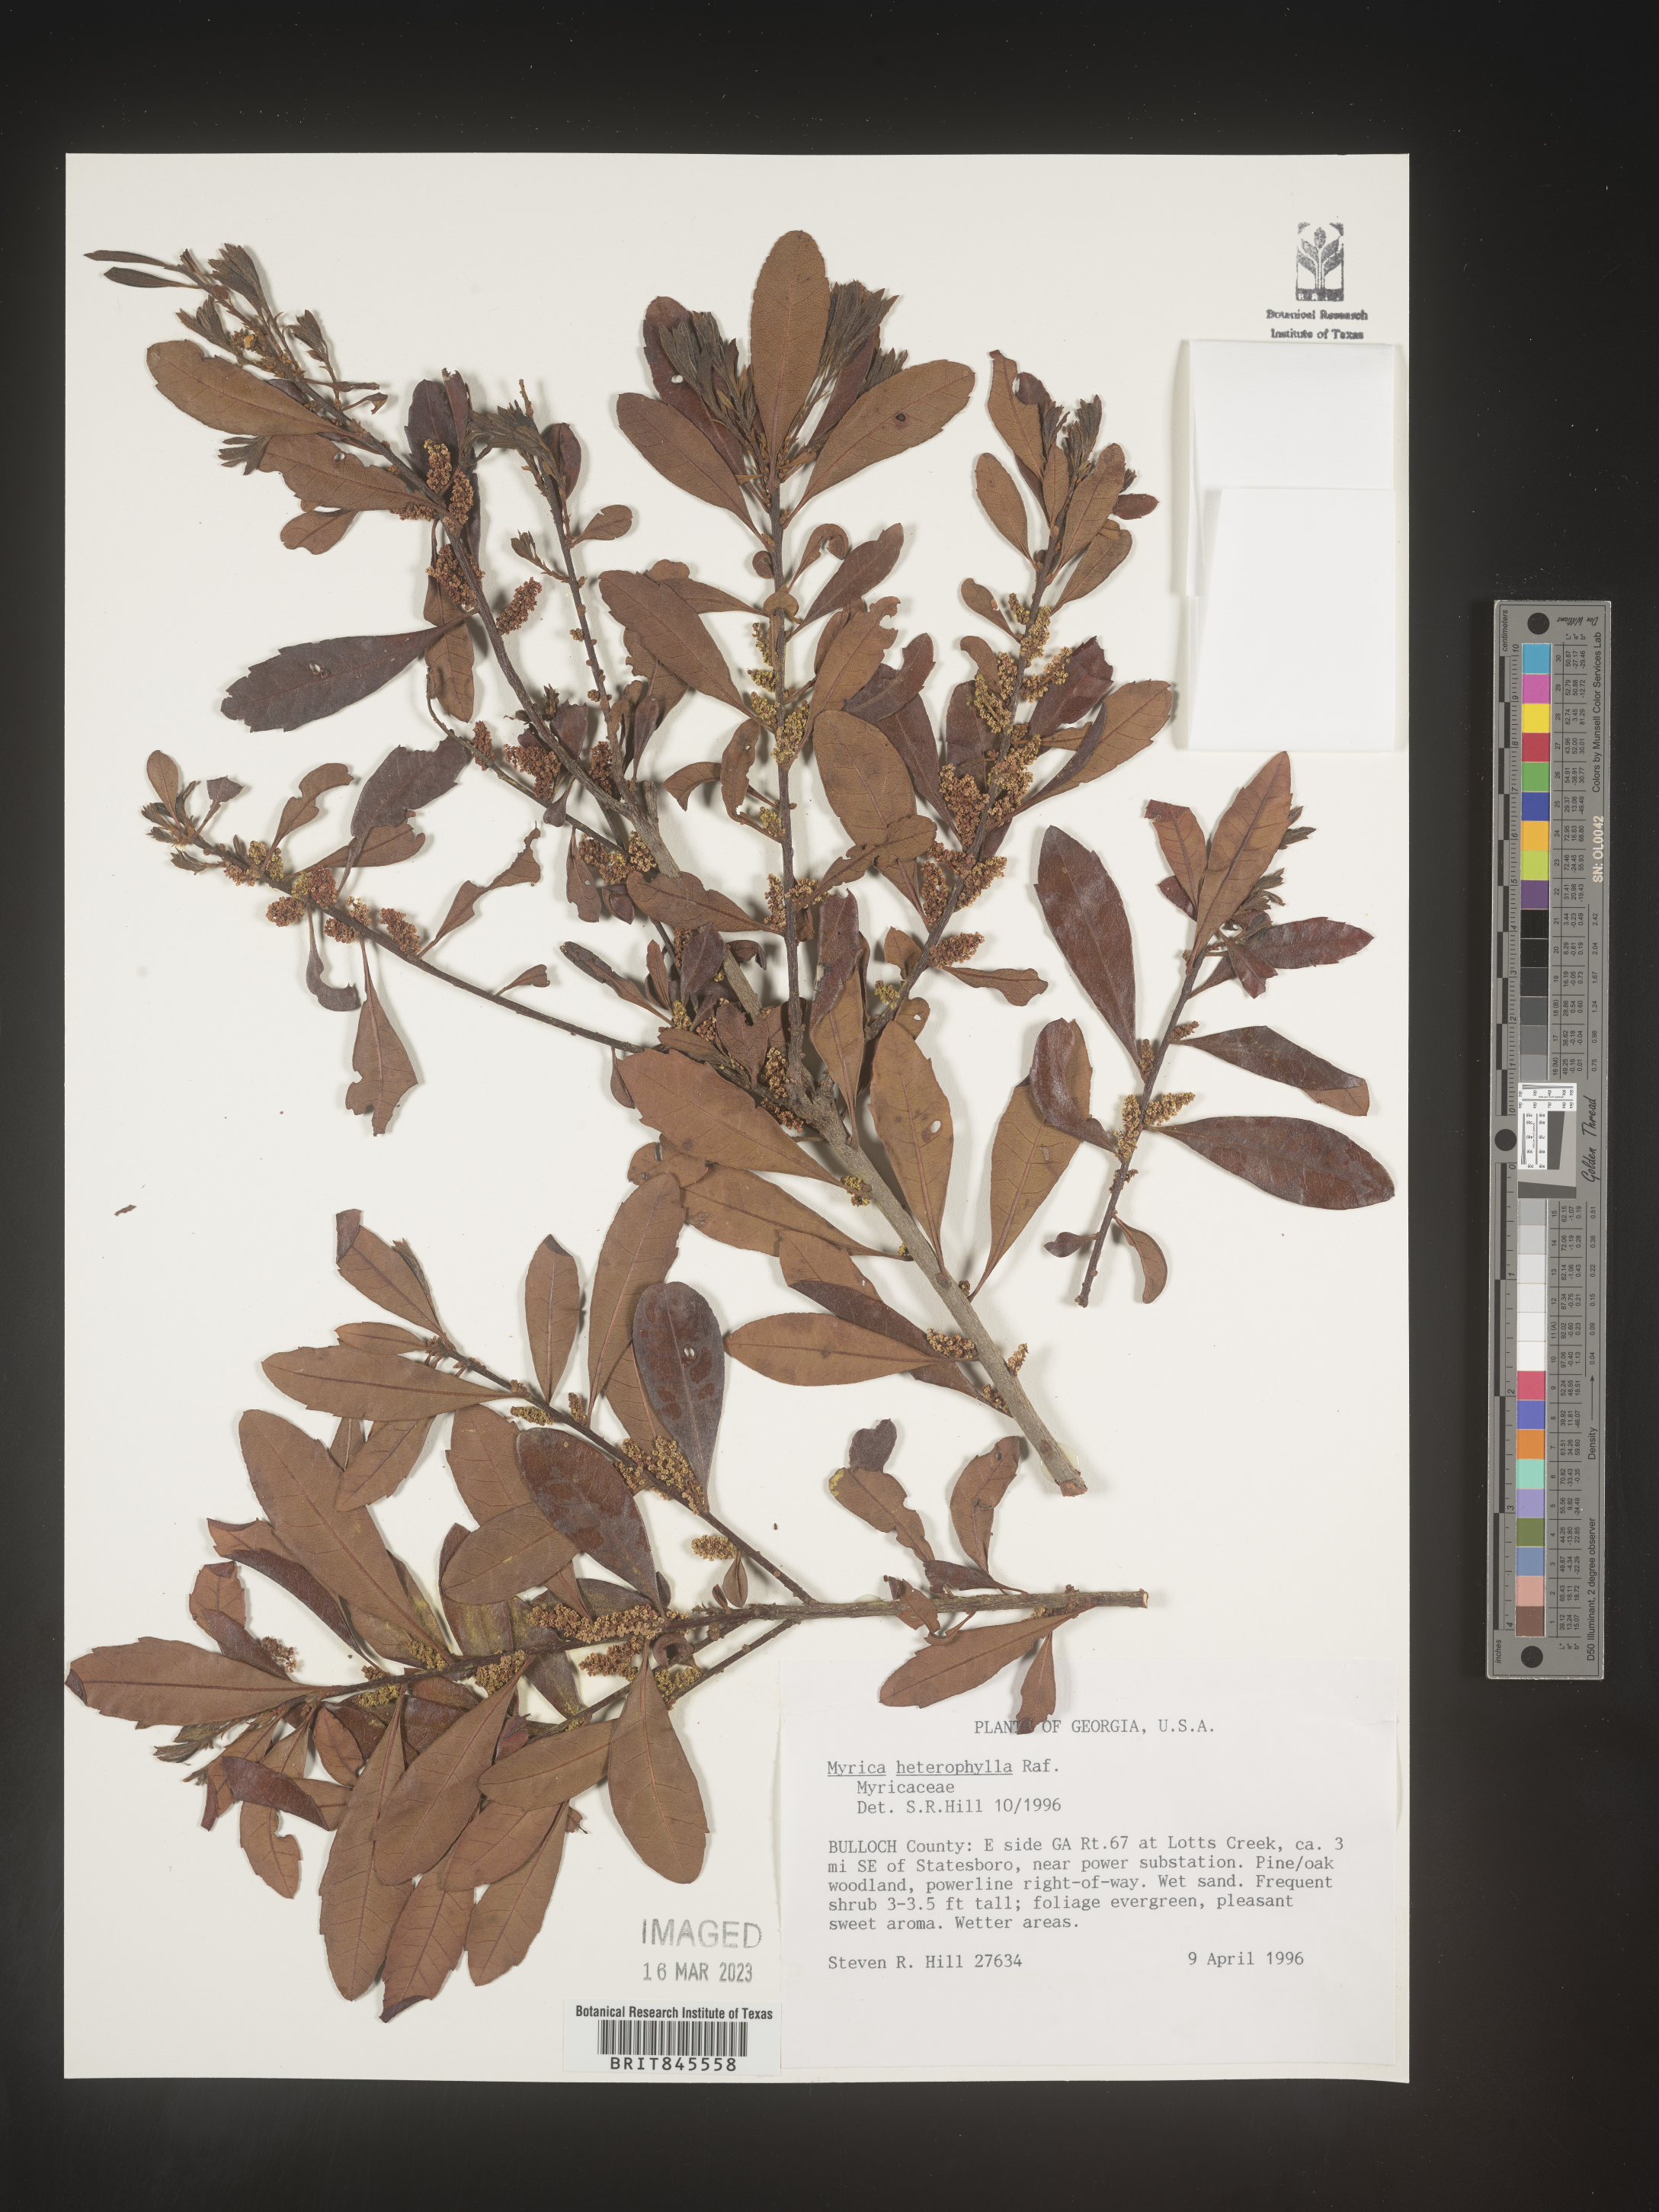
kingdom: Plantae
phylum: Tracheophyta
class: Magnoliopsida
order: Fagales
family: Myricaceae
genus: Morella
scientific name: Morella caroliniensis
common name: Evergreen bayberry
